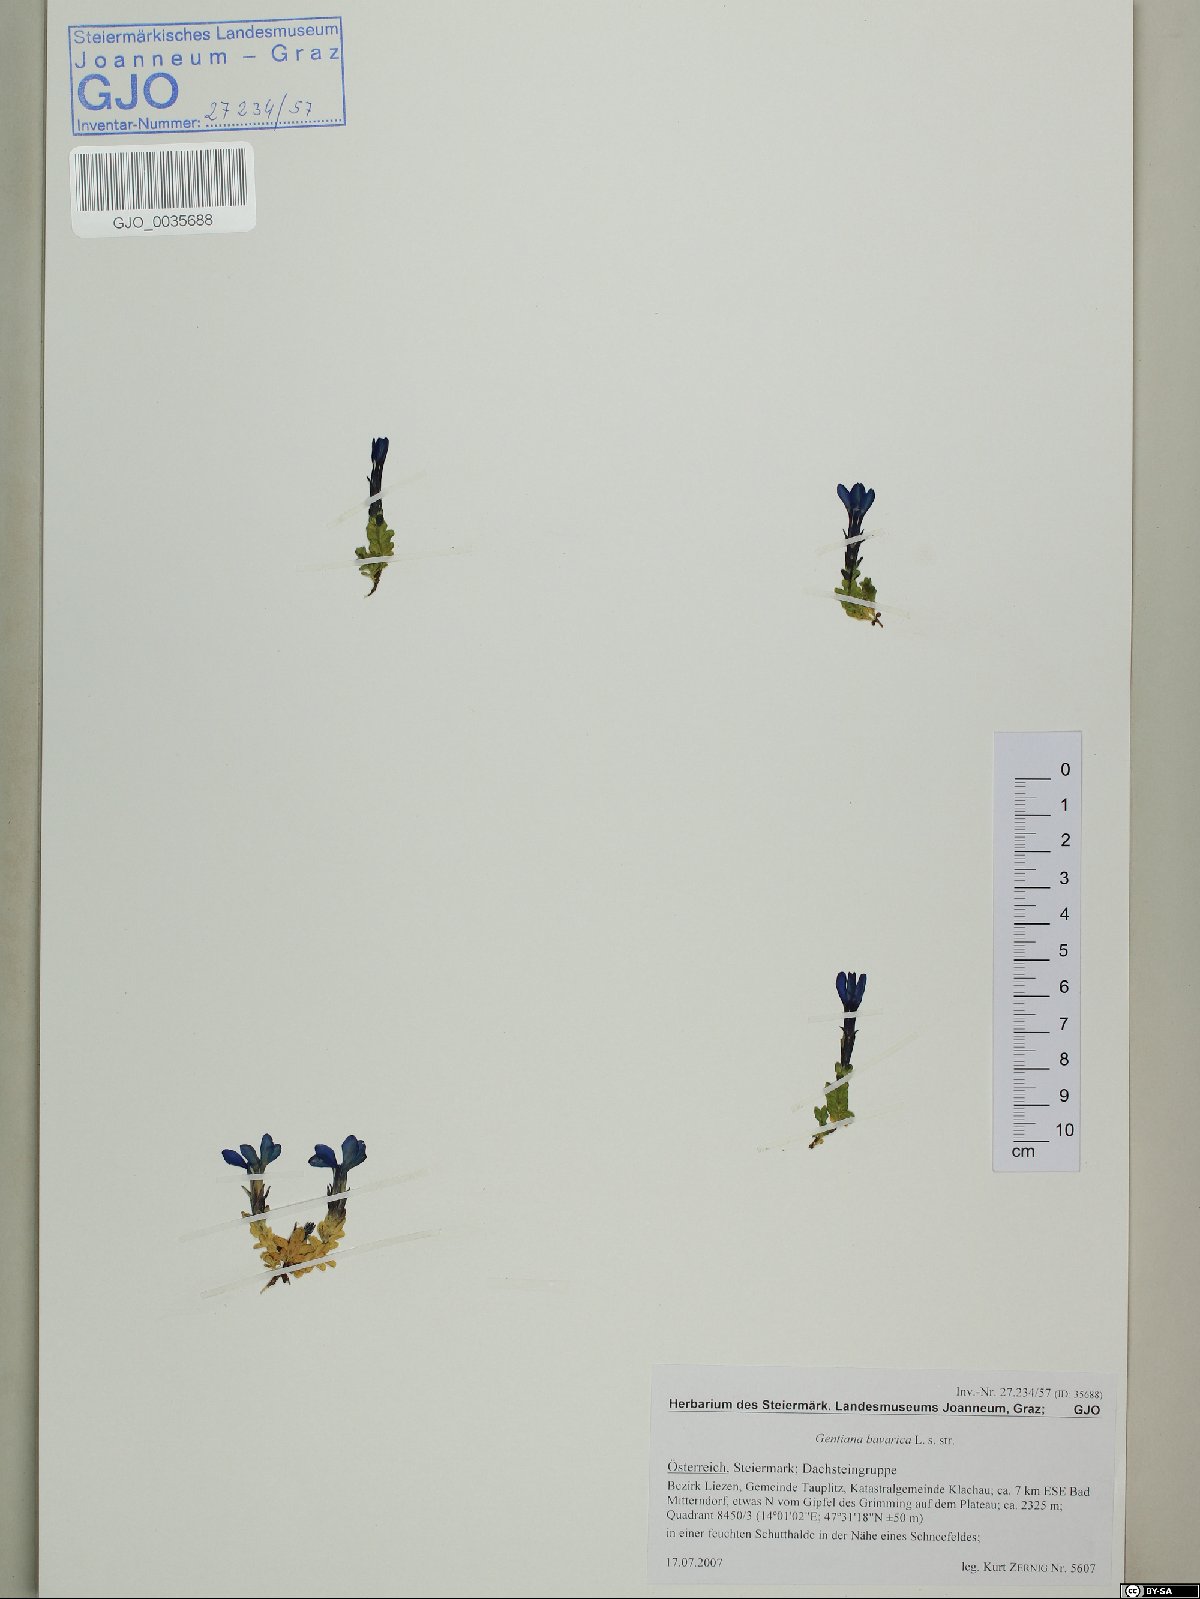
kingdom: Plantae
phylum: Tracheophyta
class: Magnoliopsida
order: Gentianales
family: Gentianaceae
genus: Gentiana
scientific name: Gentiana bavarica
